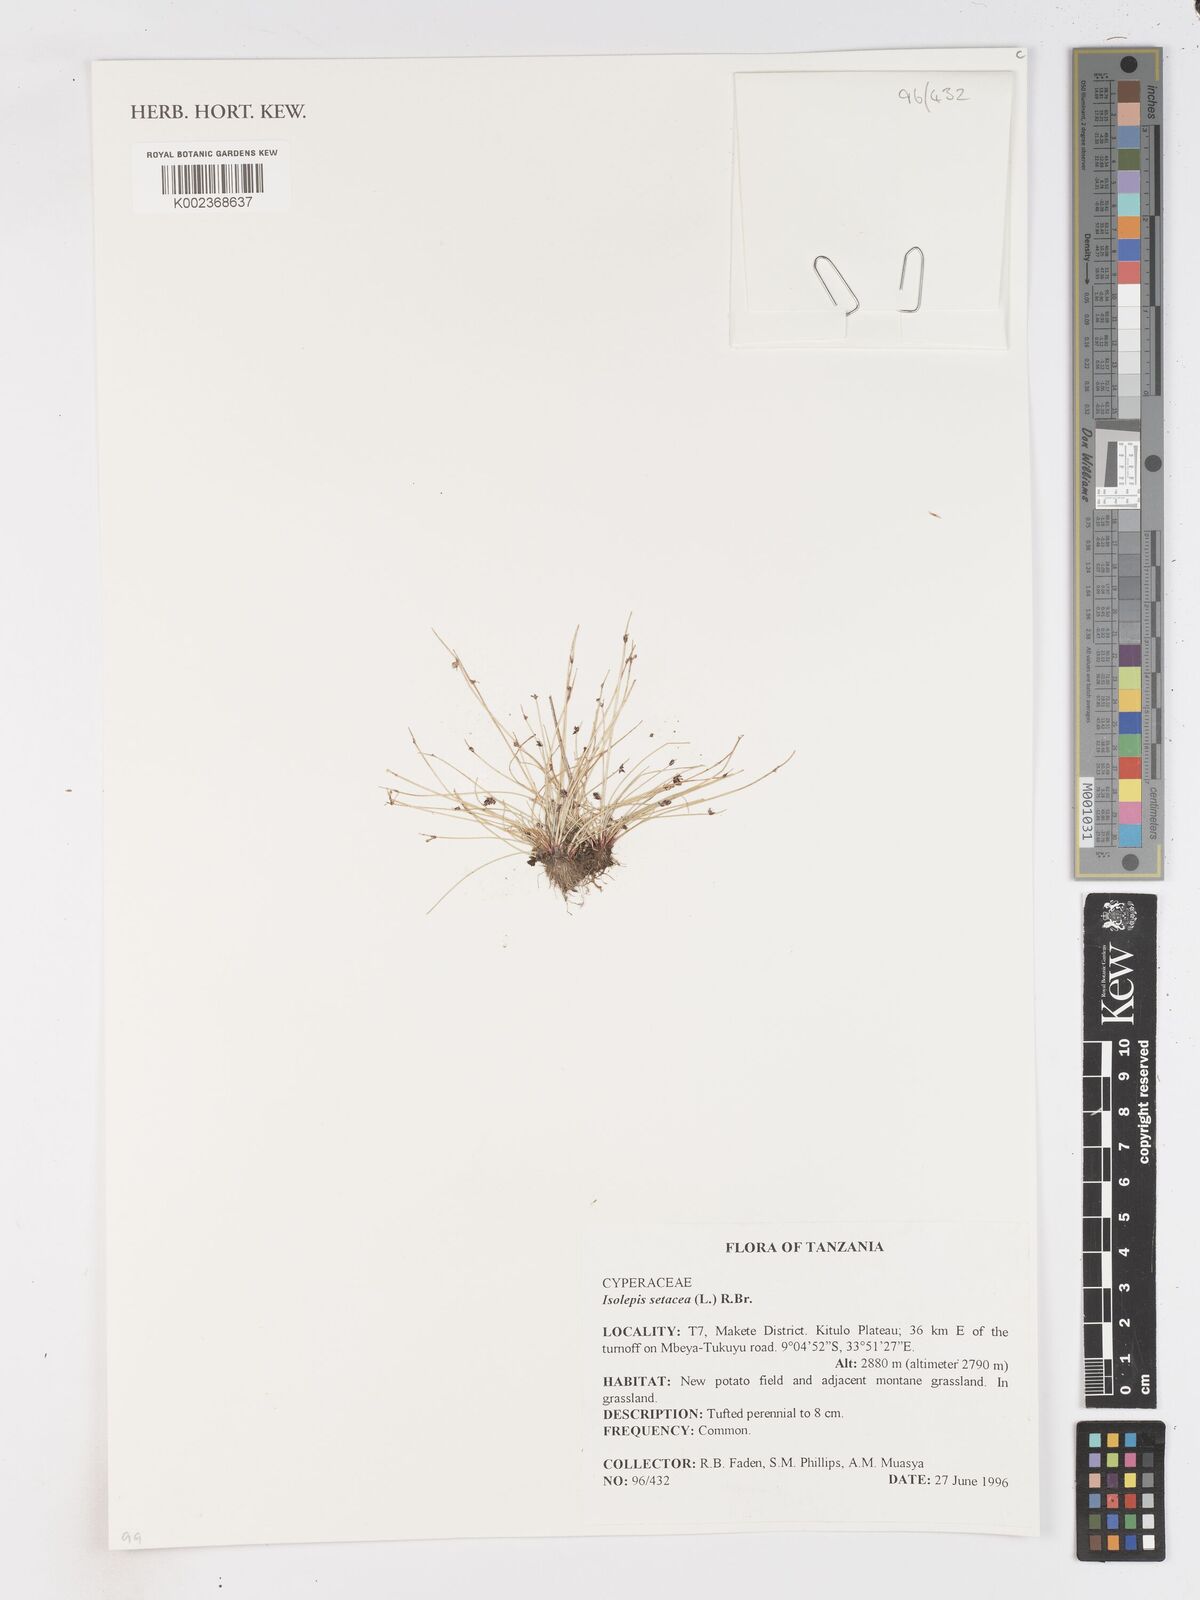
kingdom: Plantae
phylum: Tracheophyta
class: Liliopsida
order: Poales
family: Cyperaceae
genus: Isolepis
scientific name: Isolepis setacea
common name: Bristle club-rush
